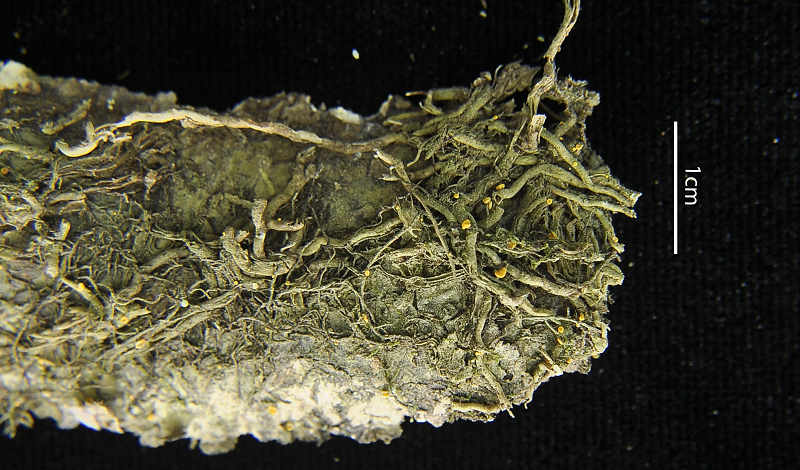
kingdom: Fungi
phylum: Ascomycota
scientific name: Ascomycota
